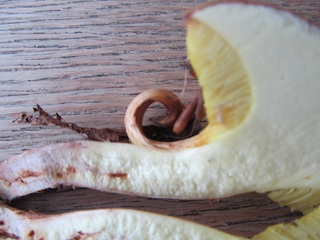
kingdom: Fungi
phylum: Basidiomycota
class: Agaricomycetes
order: Boletales
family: Boletaceae
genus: Xerocomus
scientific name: Xerocomus ferrugineus
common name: vaskeskinds-rørhat
